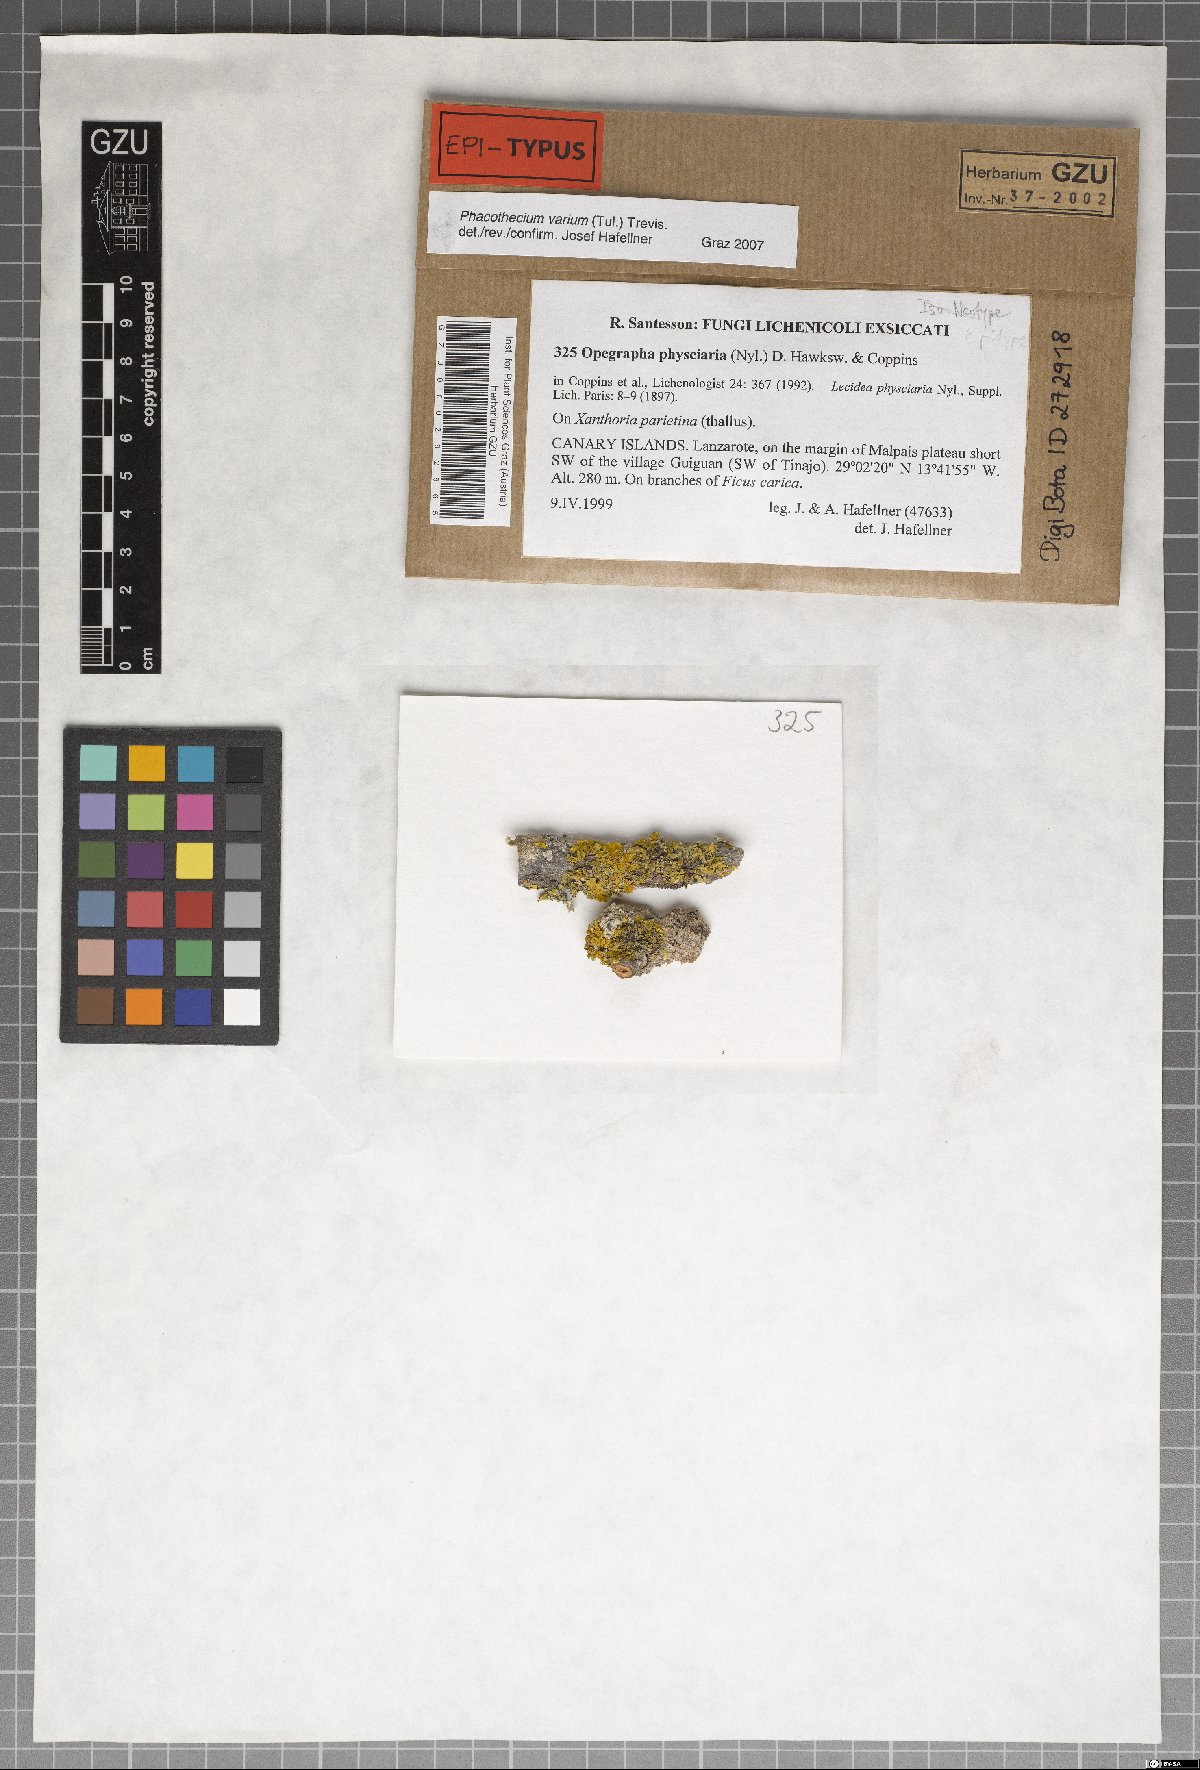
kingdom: Fungi
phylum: Ascomycota
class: Arthoniomycetes
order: Arthoniales
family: Opegraphaceae
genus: Opegrapha
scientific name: Opegrapha physciaria
